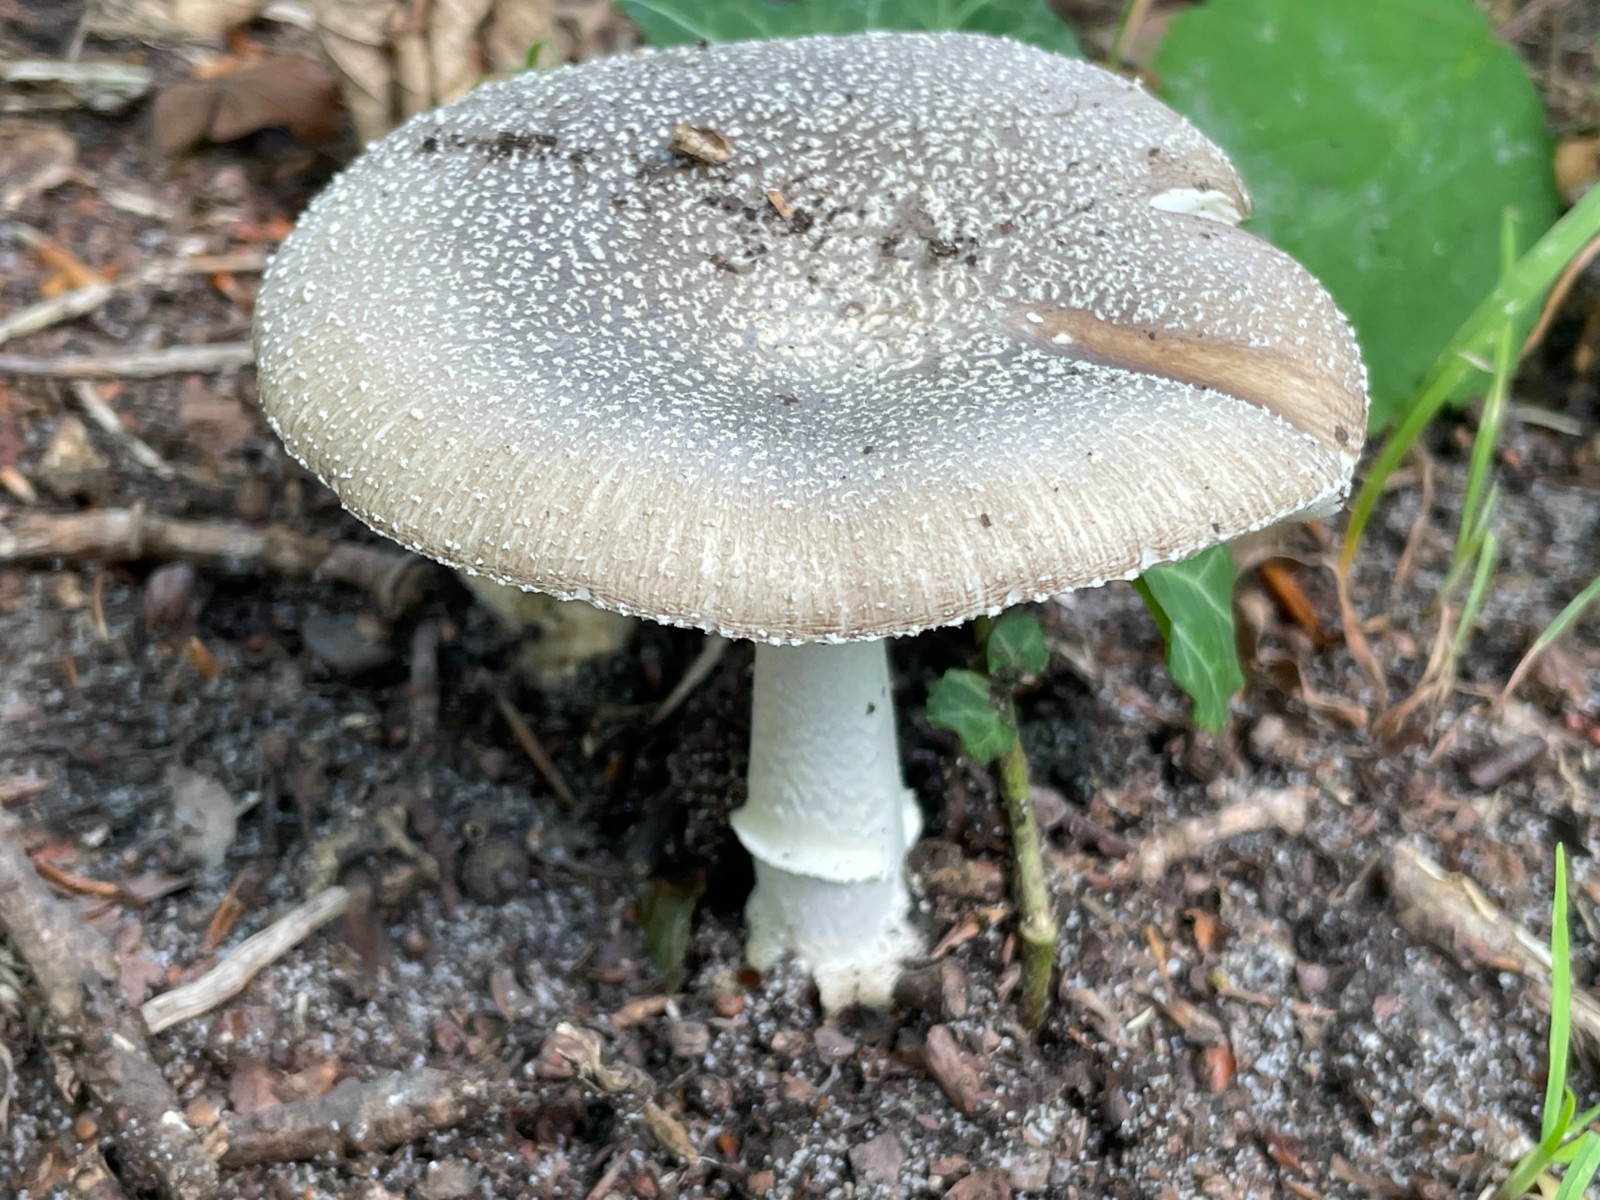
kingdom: Fungi
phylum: Basidiomycota
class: Agaricomycetes
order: Agaricales
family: Amanitaceae
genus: Amanita
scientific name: Amanita pantherina
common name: panter-fluesvamp
